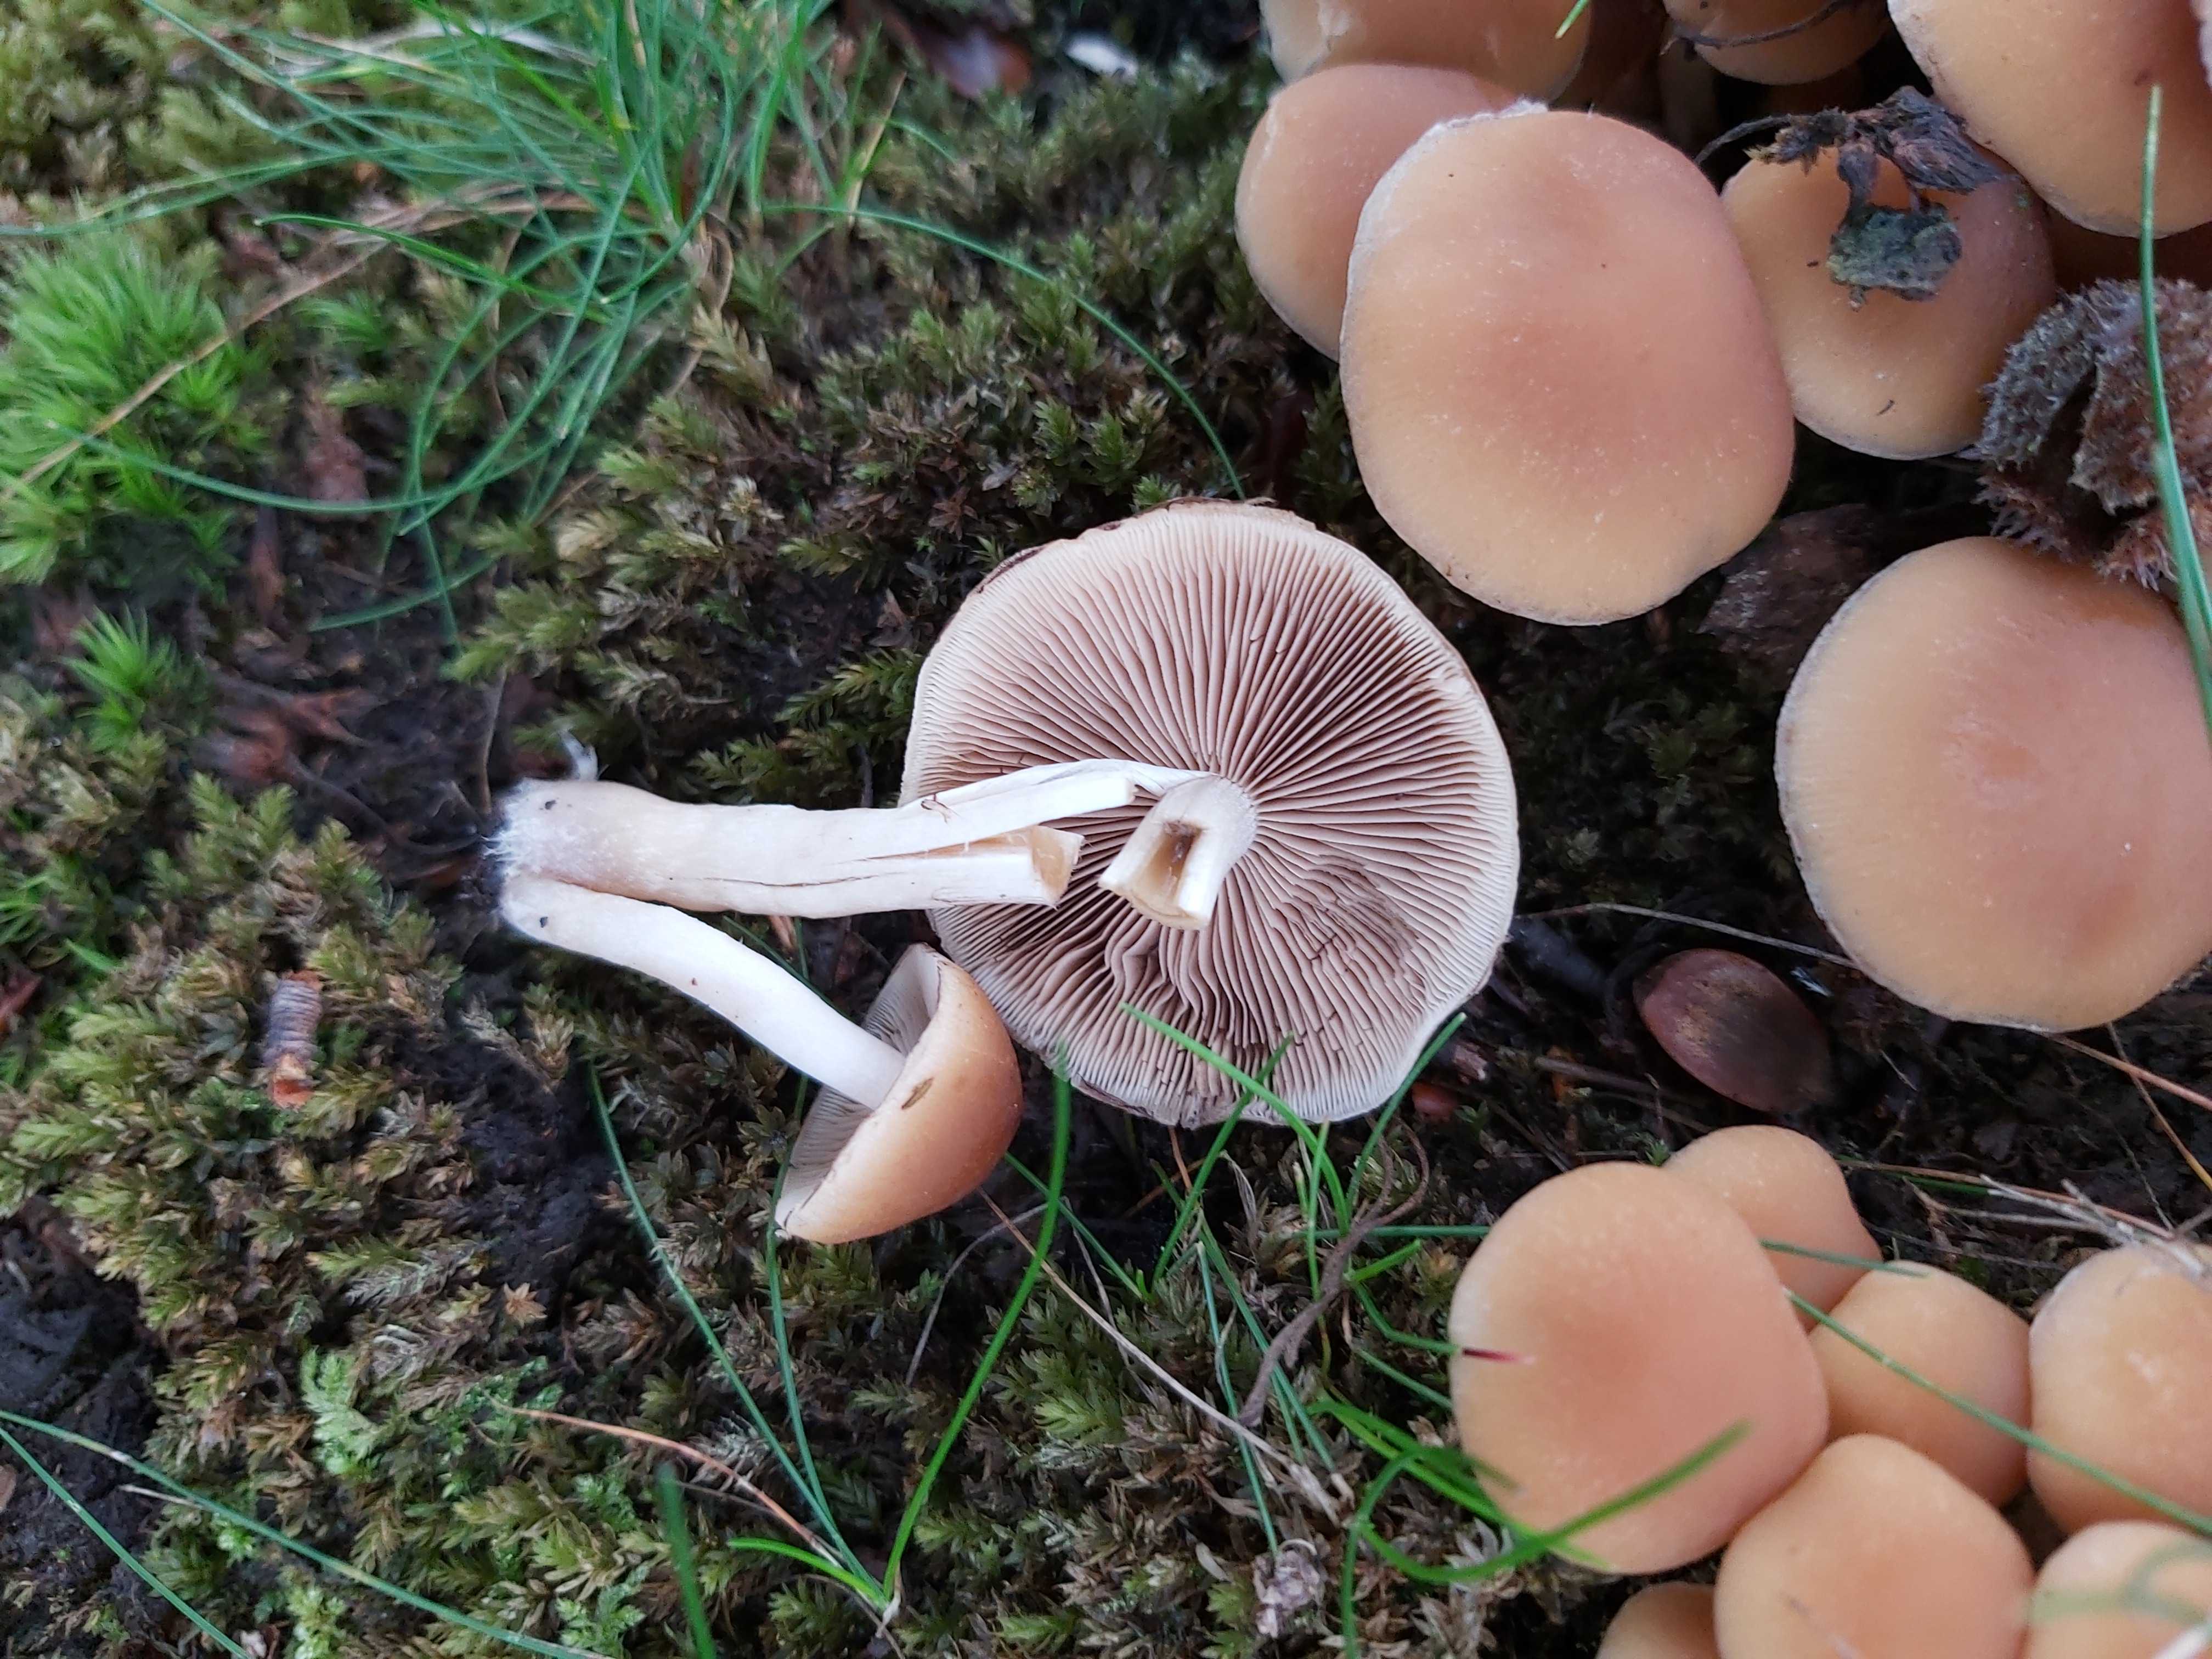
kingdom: Fungi
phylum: Basidiomycota
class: Agaricomycetes
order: Agaricales
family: Psathyrellaceae
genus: Psathyrella
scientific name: Psathyrella piluliformis
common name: lysstokket mørkhat
